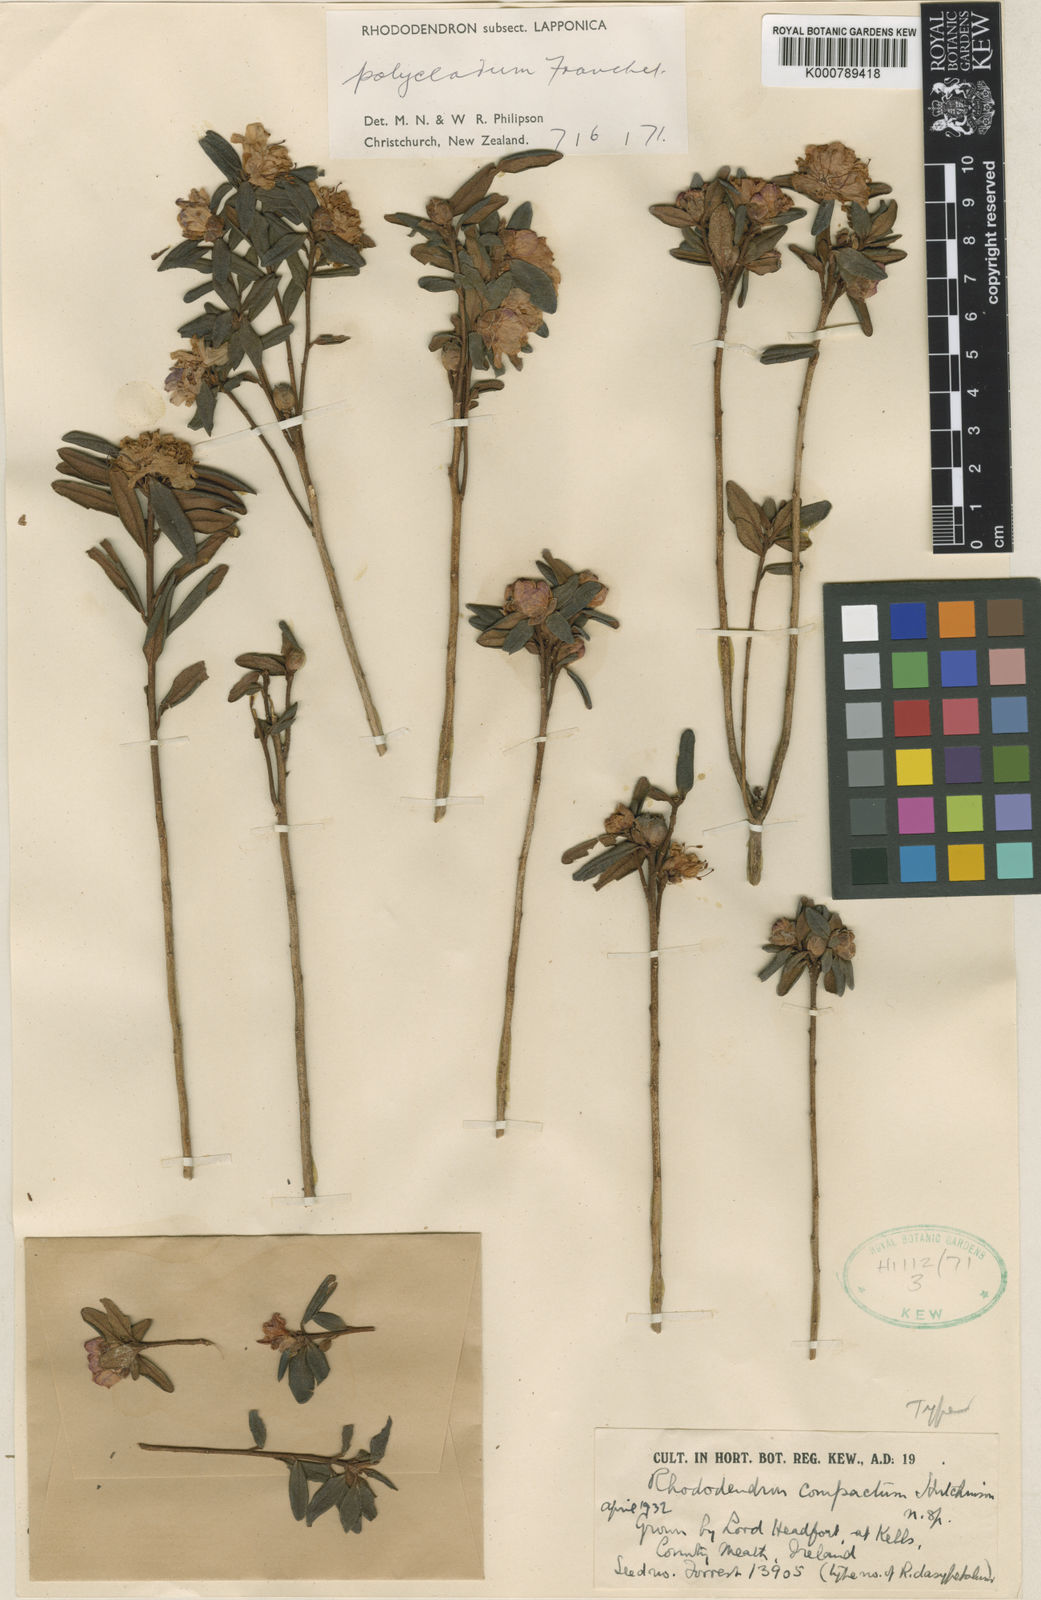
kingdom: Plantae
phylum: Tracheophyta
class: Magnoliopsida
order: Ericales
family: Ericaceae
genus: Rhododendron
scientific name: Rhododendron
